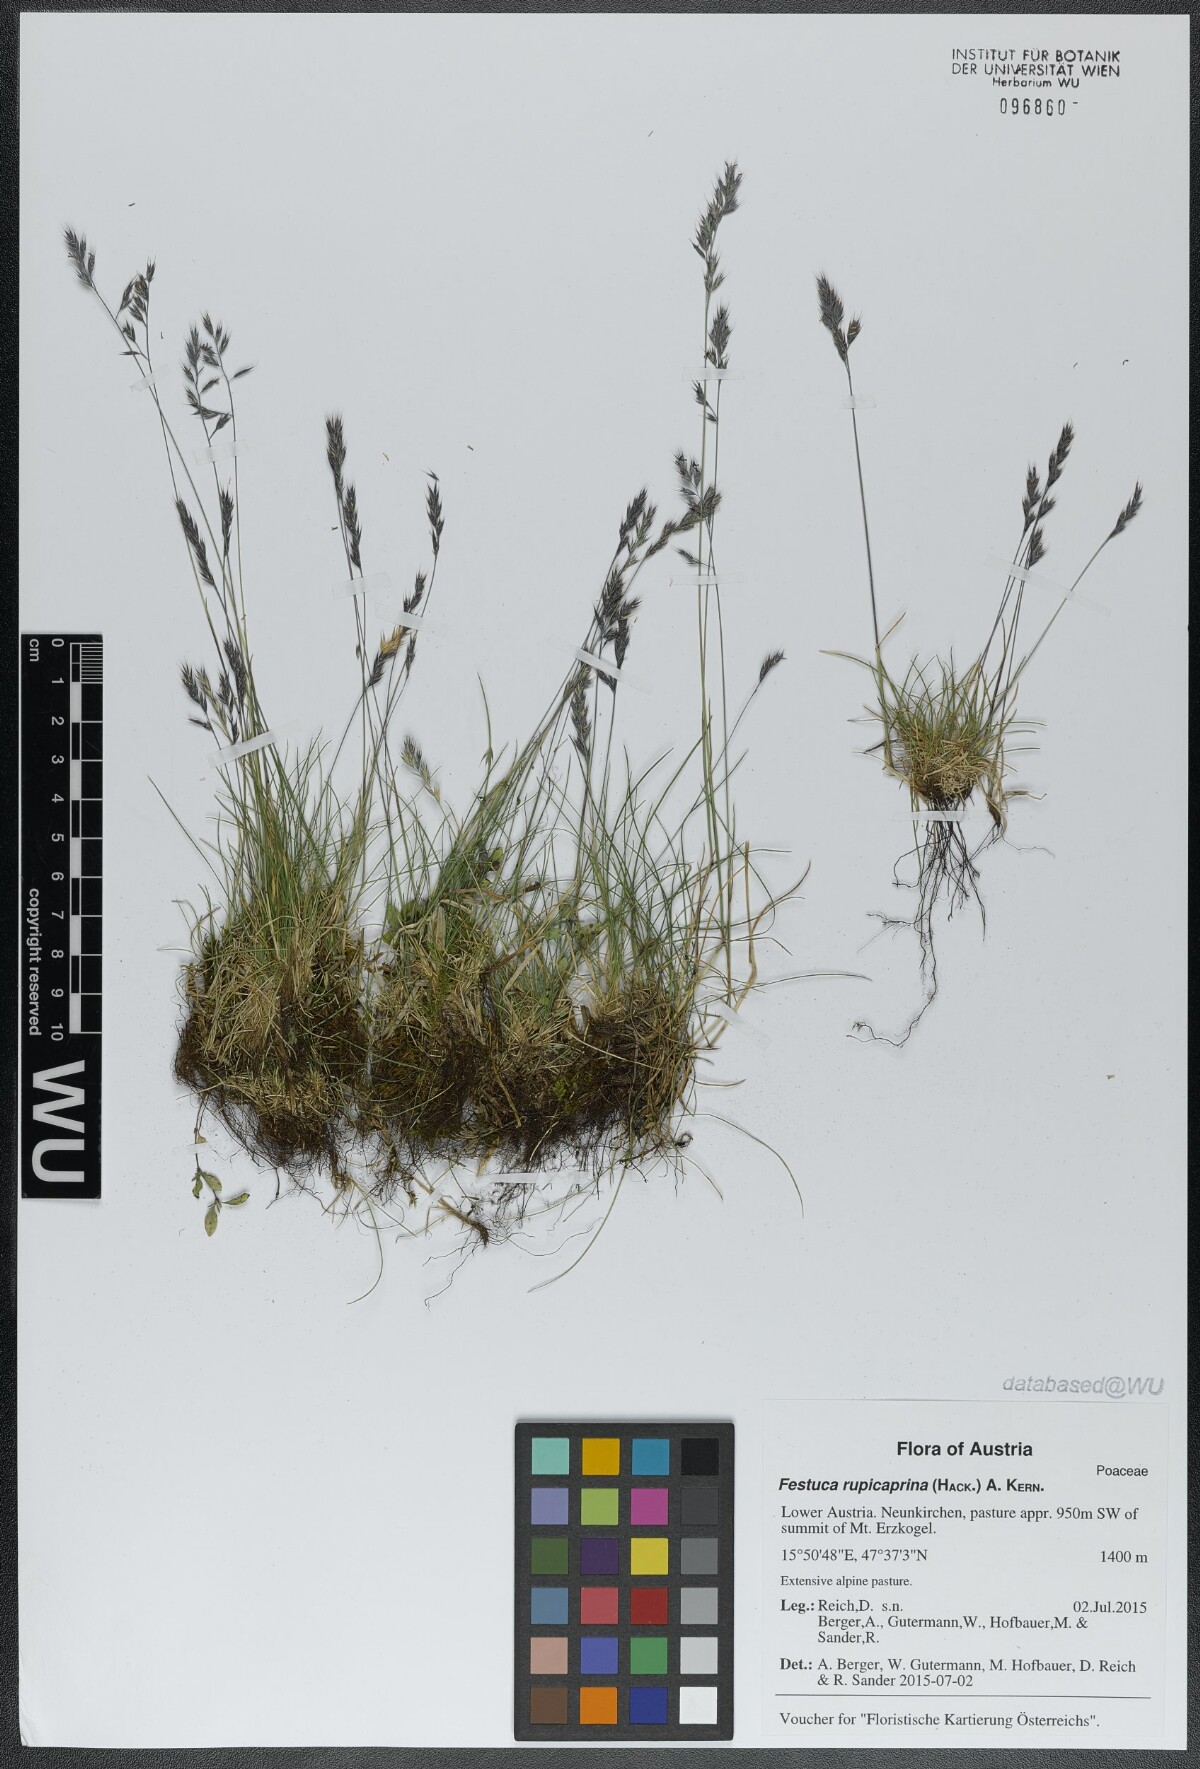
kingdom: Plantae
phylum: Tracheophyta
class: Liliopsida
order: Poales
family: Poaceae
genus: Festuca
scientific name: Festuca rupicaprina
